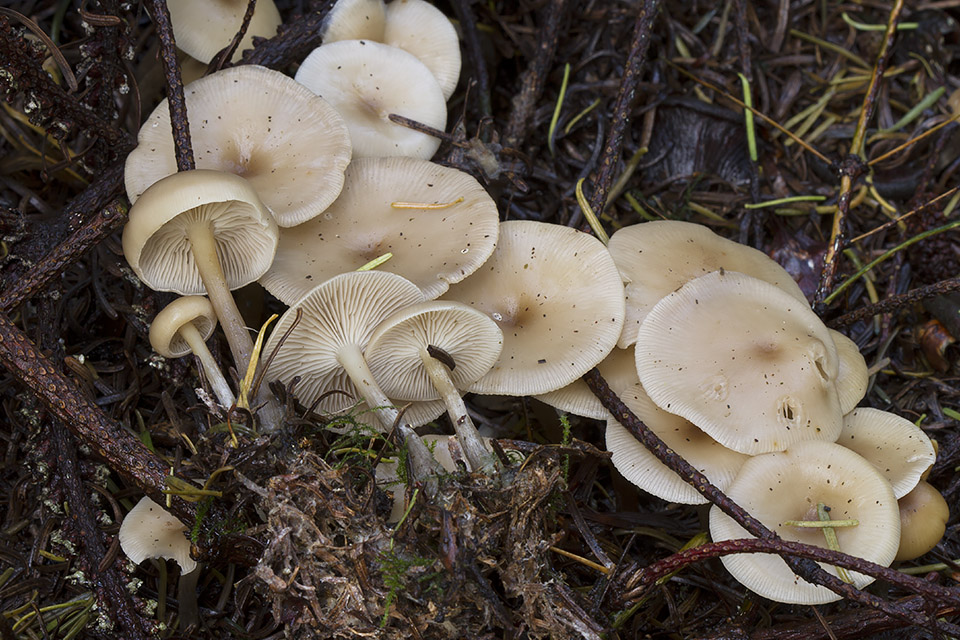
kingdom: Fungi
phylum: Basidiomycota
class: Agaricomycetes
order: Agaricales
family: Tricholomataceae
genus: Clitocybe
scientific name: Clitocybe metachroa
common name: grå tragthat
